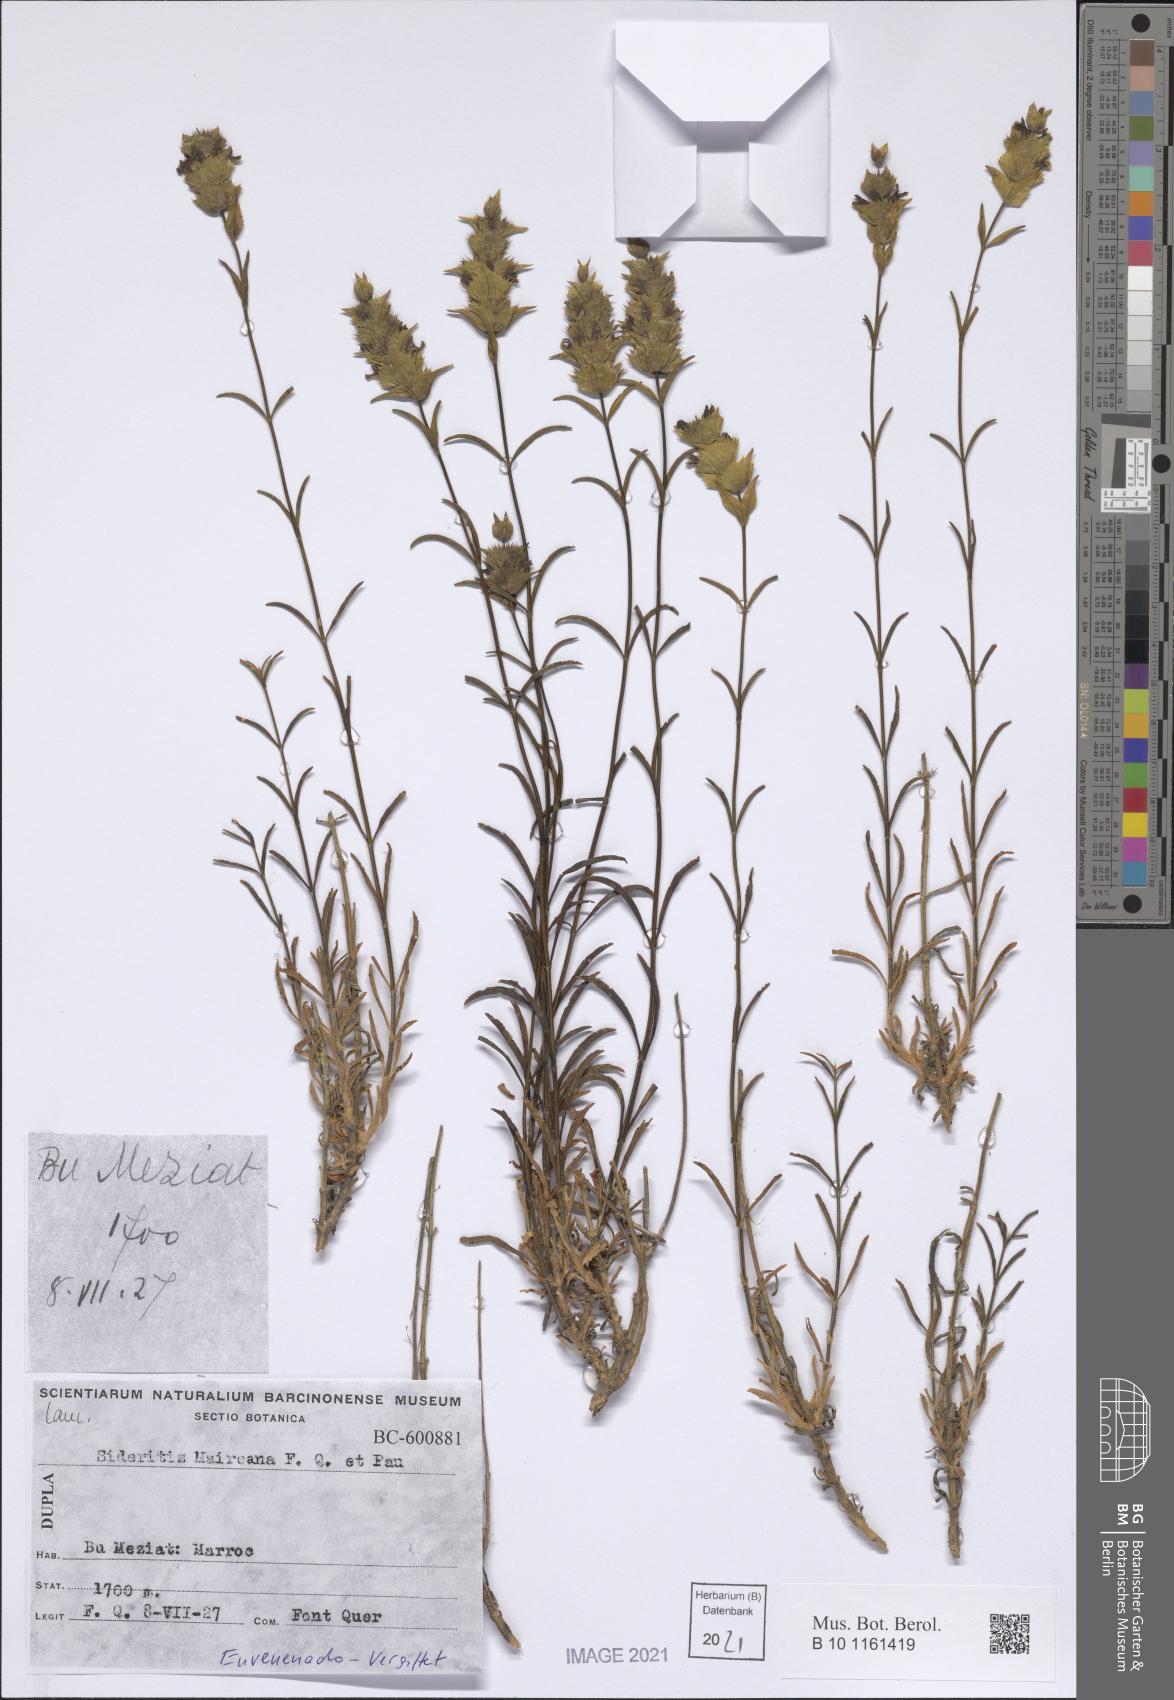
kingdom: Plantae
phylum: Tracheophyta
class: Magnoliopsida
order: Lamiales
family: Lamiaceae
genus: Sideritis
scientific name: Sideritis maireana
